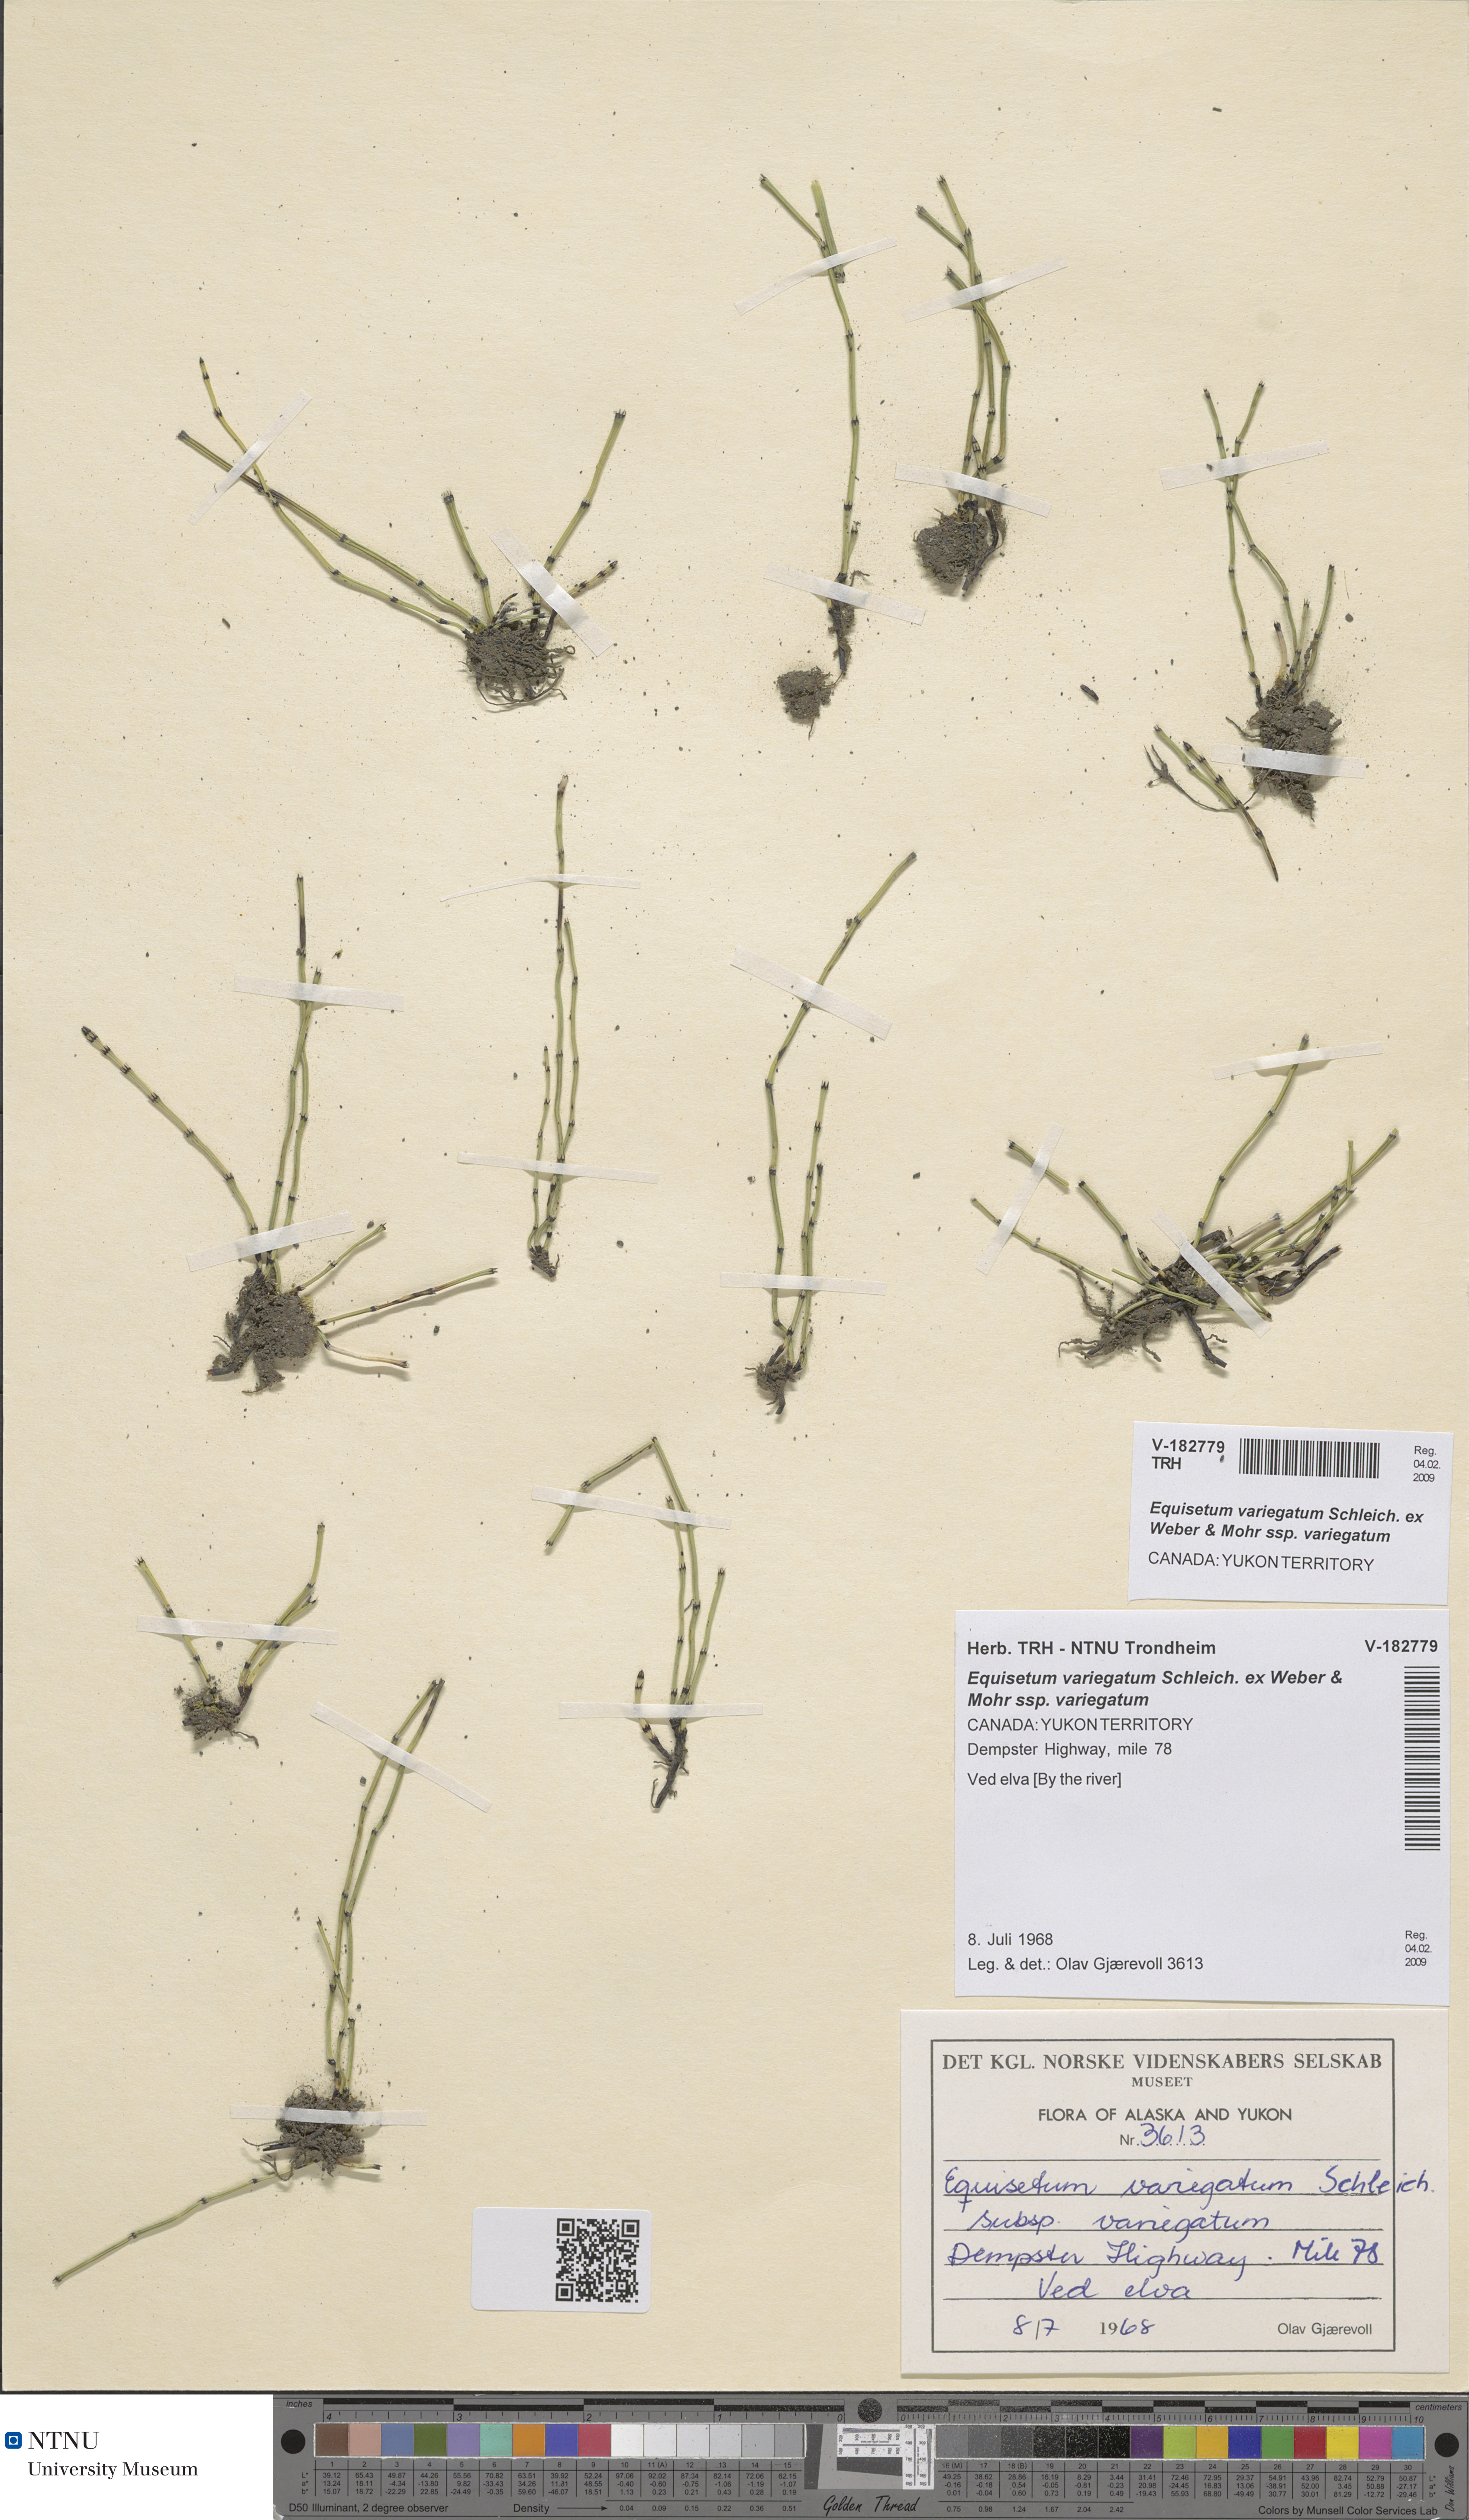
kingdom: Plantae
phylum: Tracheophyta
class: Polypodiopsida
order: Equisetales
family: Equisetaceae
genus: Equisetum
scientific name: Equisetum variegatum
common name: Variegated horsetail
